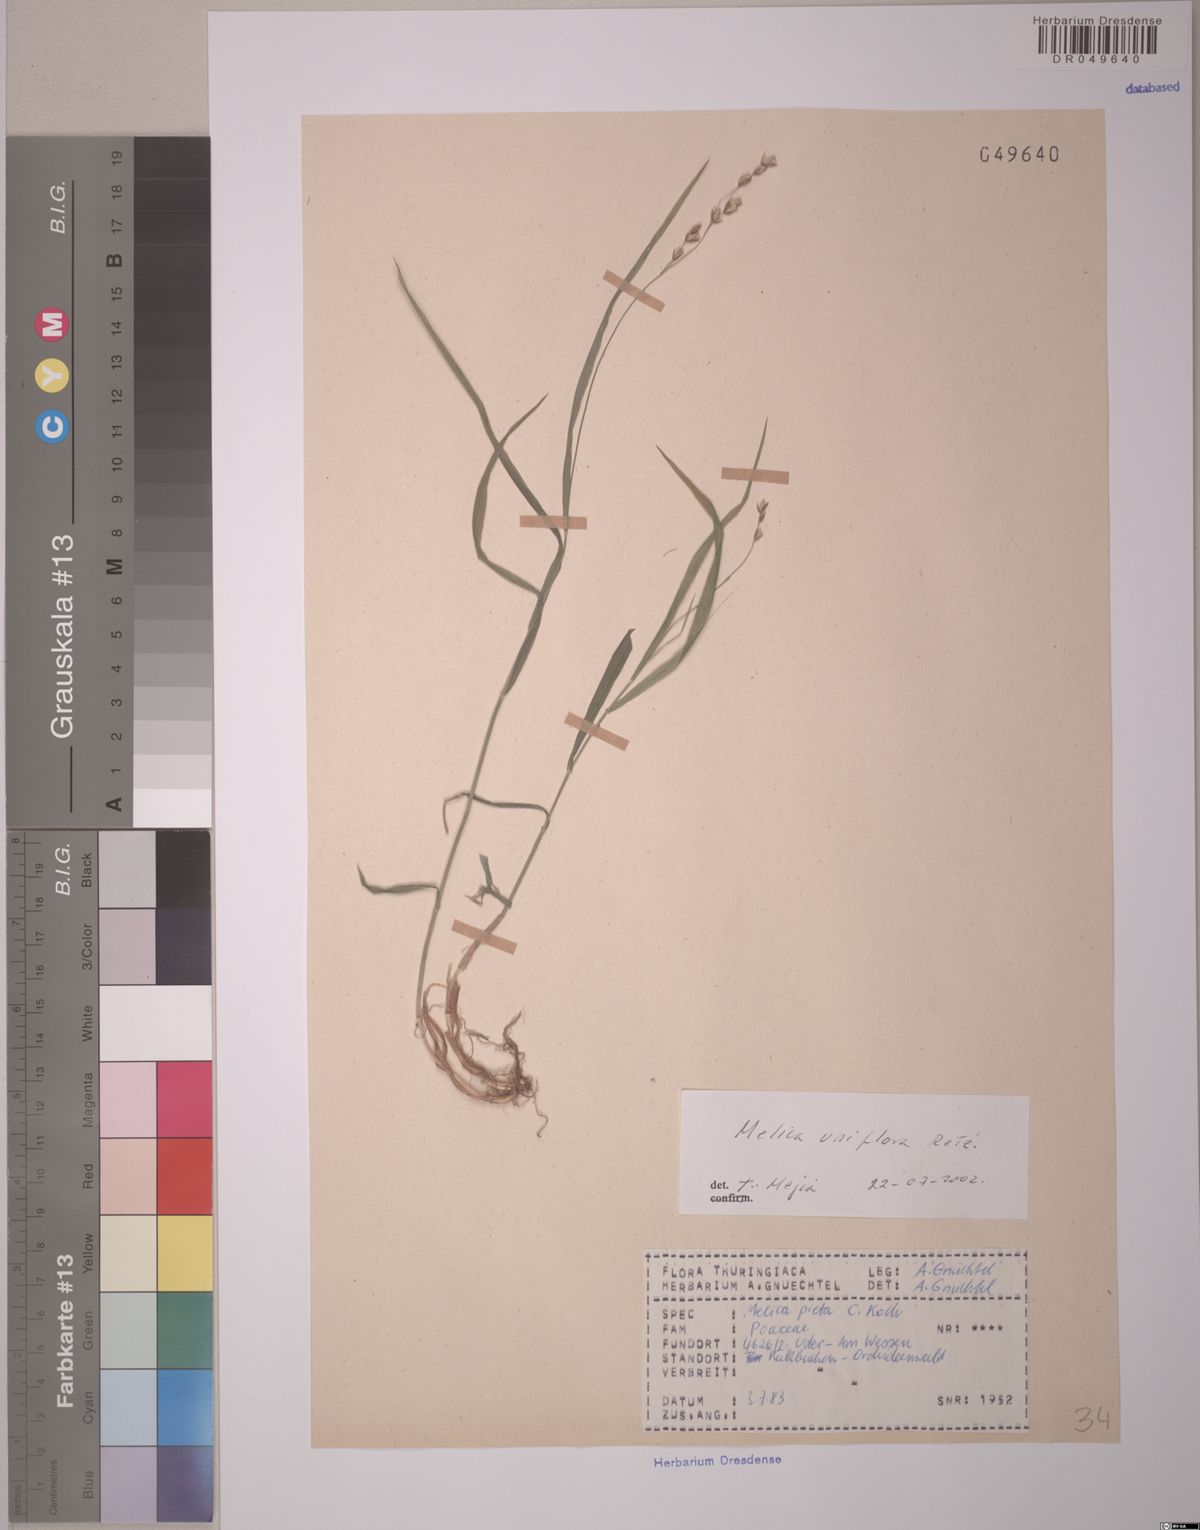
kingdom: Plantae
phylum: Tracheophyta
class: Liliopsida
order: Poales
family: Poaceae
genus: Melica
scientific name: Melica uniflora
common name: Wood melick
